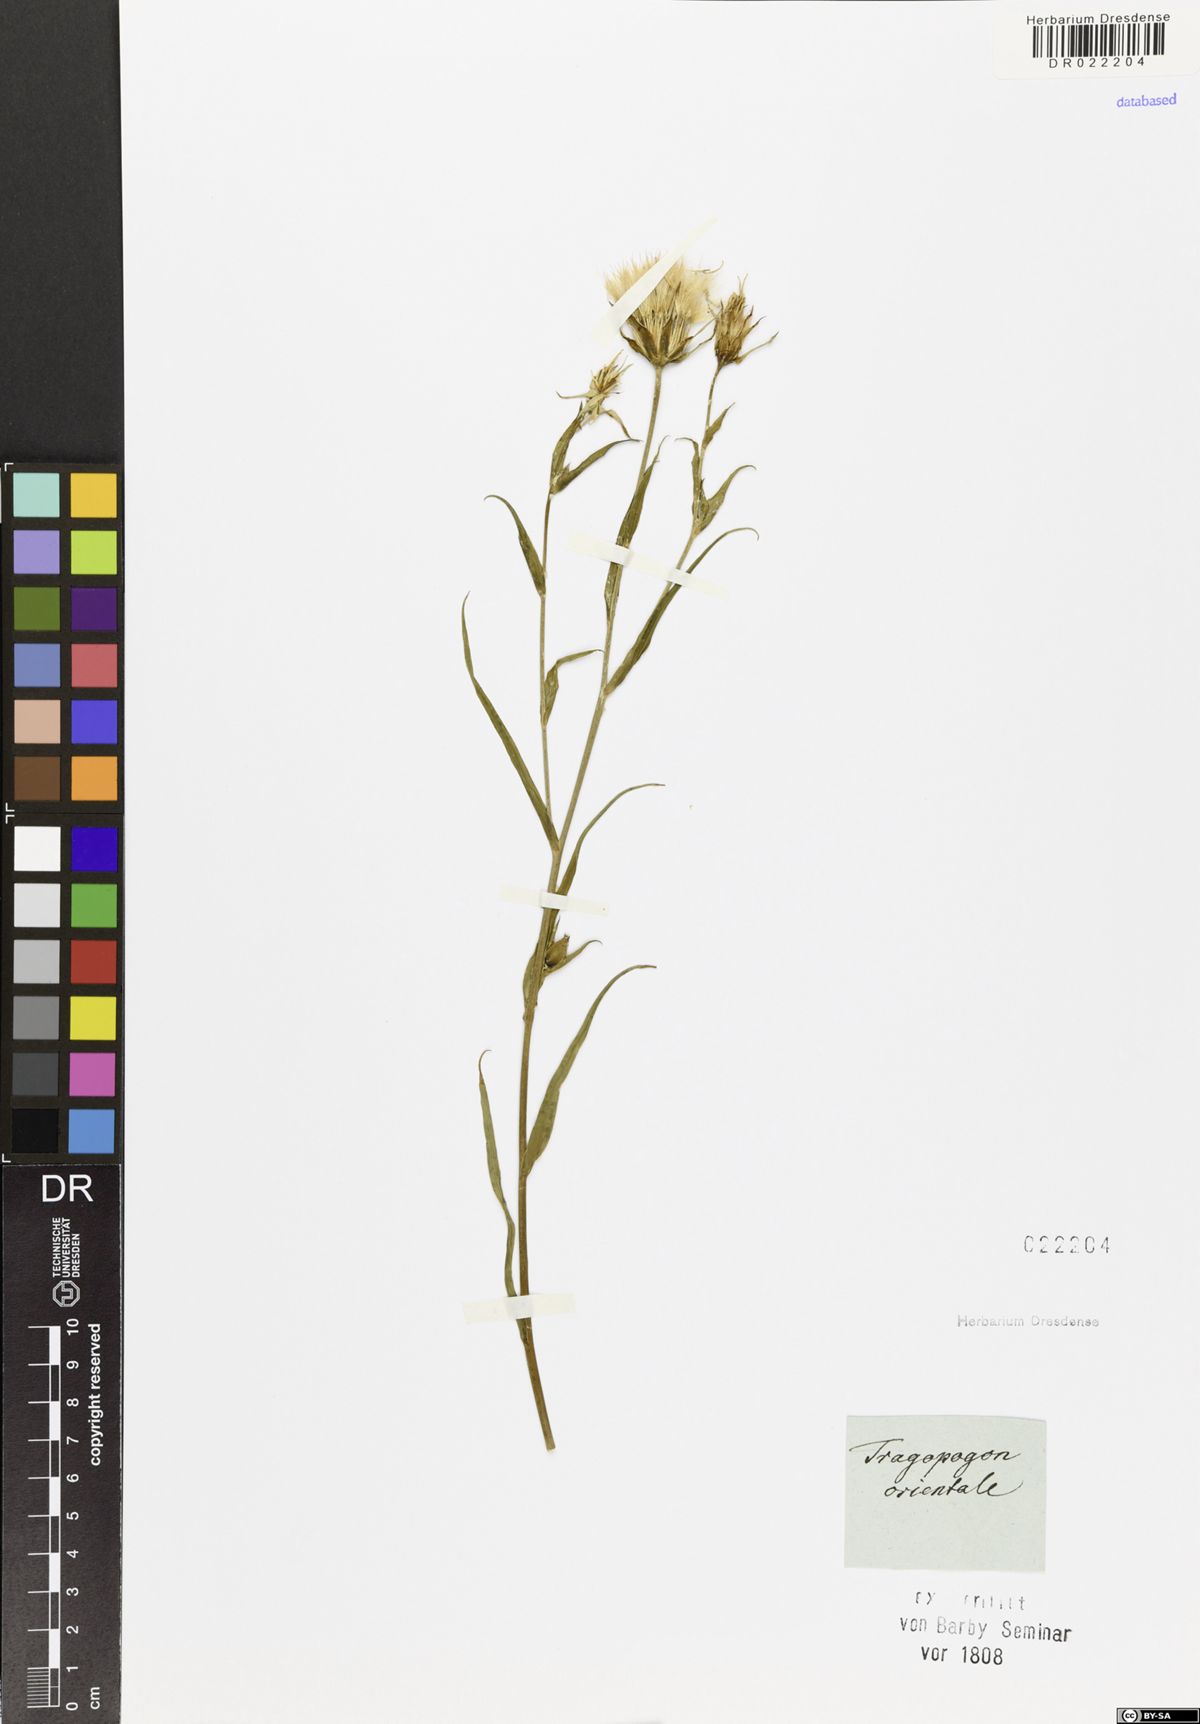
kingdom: Plantae
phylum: Tracheophyta
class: Magnoliopsida
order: Asterales
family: Asteraceae
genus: Tragopogon
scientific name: Tragopogon orientalis
